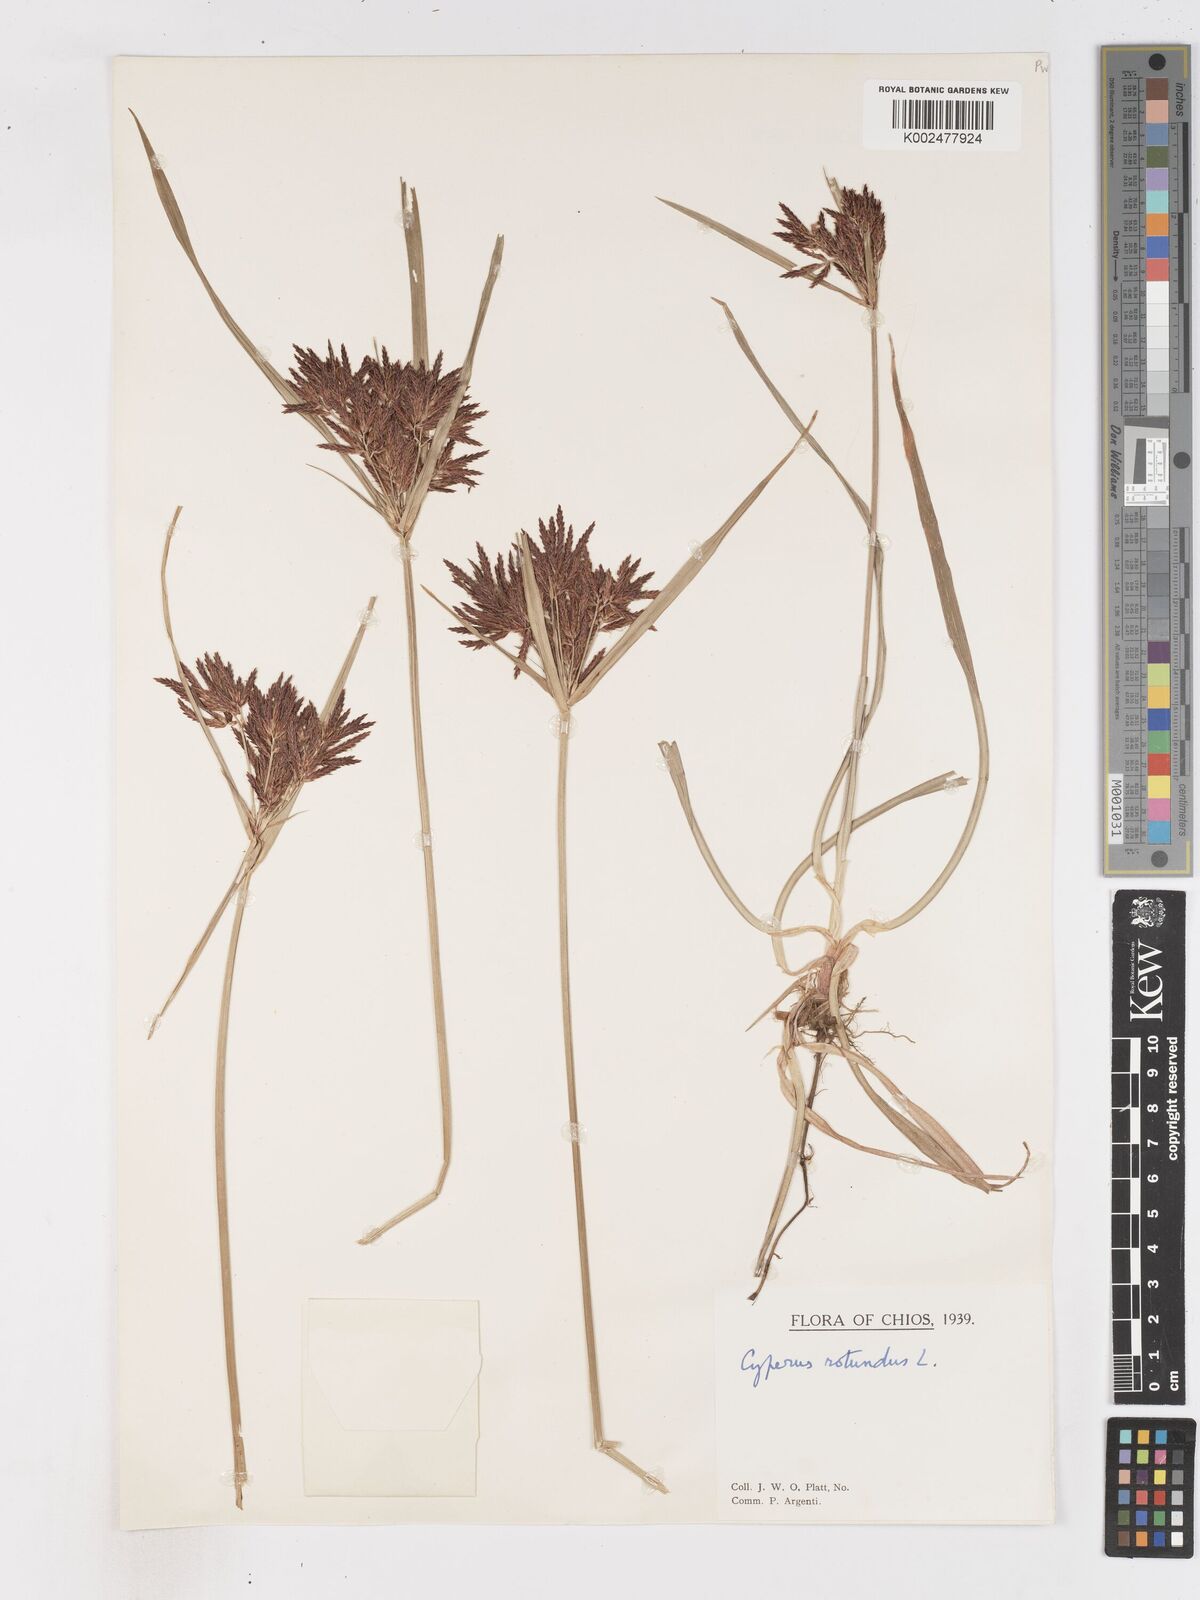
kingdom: Plantae
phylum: Tracheophyta
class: Liliopsida
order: Poales
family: Cyperaceae
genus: Cyperus
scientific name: Cyperus rotundus
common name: Nutgrass
